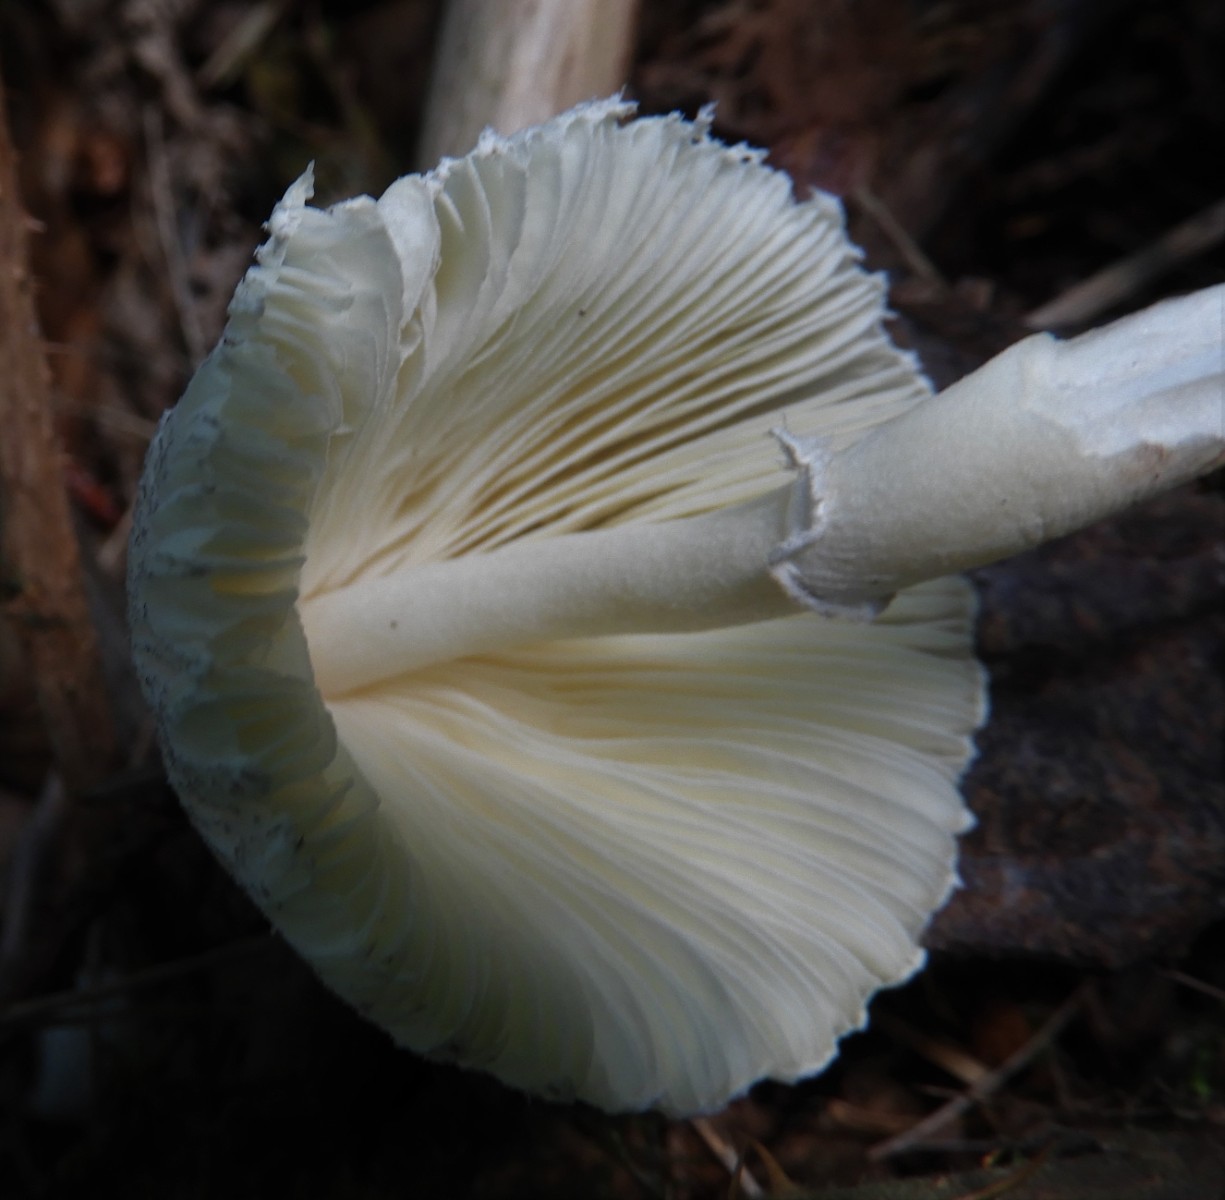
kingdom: Fungi
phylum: Basidiomycota
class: Agaricomycetes
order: Agaricales
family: Agaricaceae
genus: Leucocoprinus
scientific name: Leucocoprinus brebissonii
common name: gråsort silkehat
